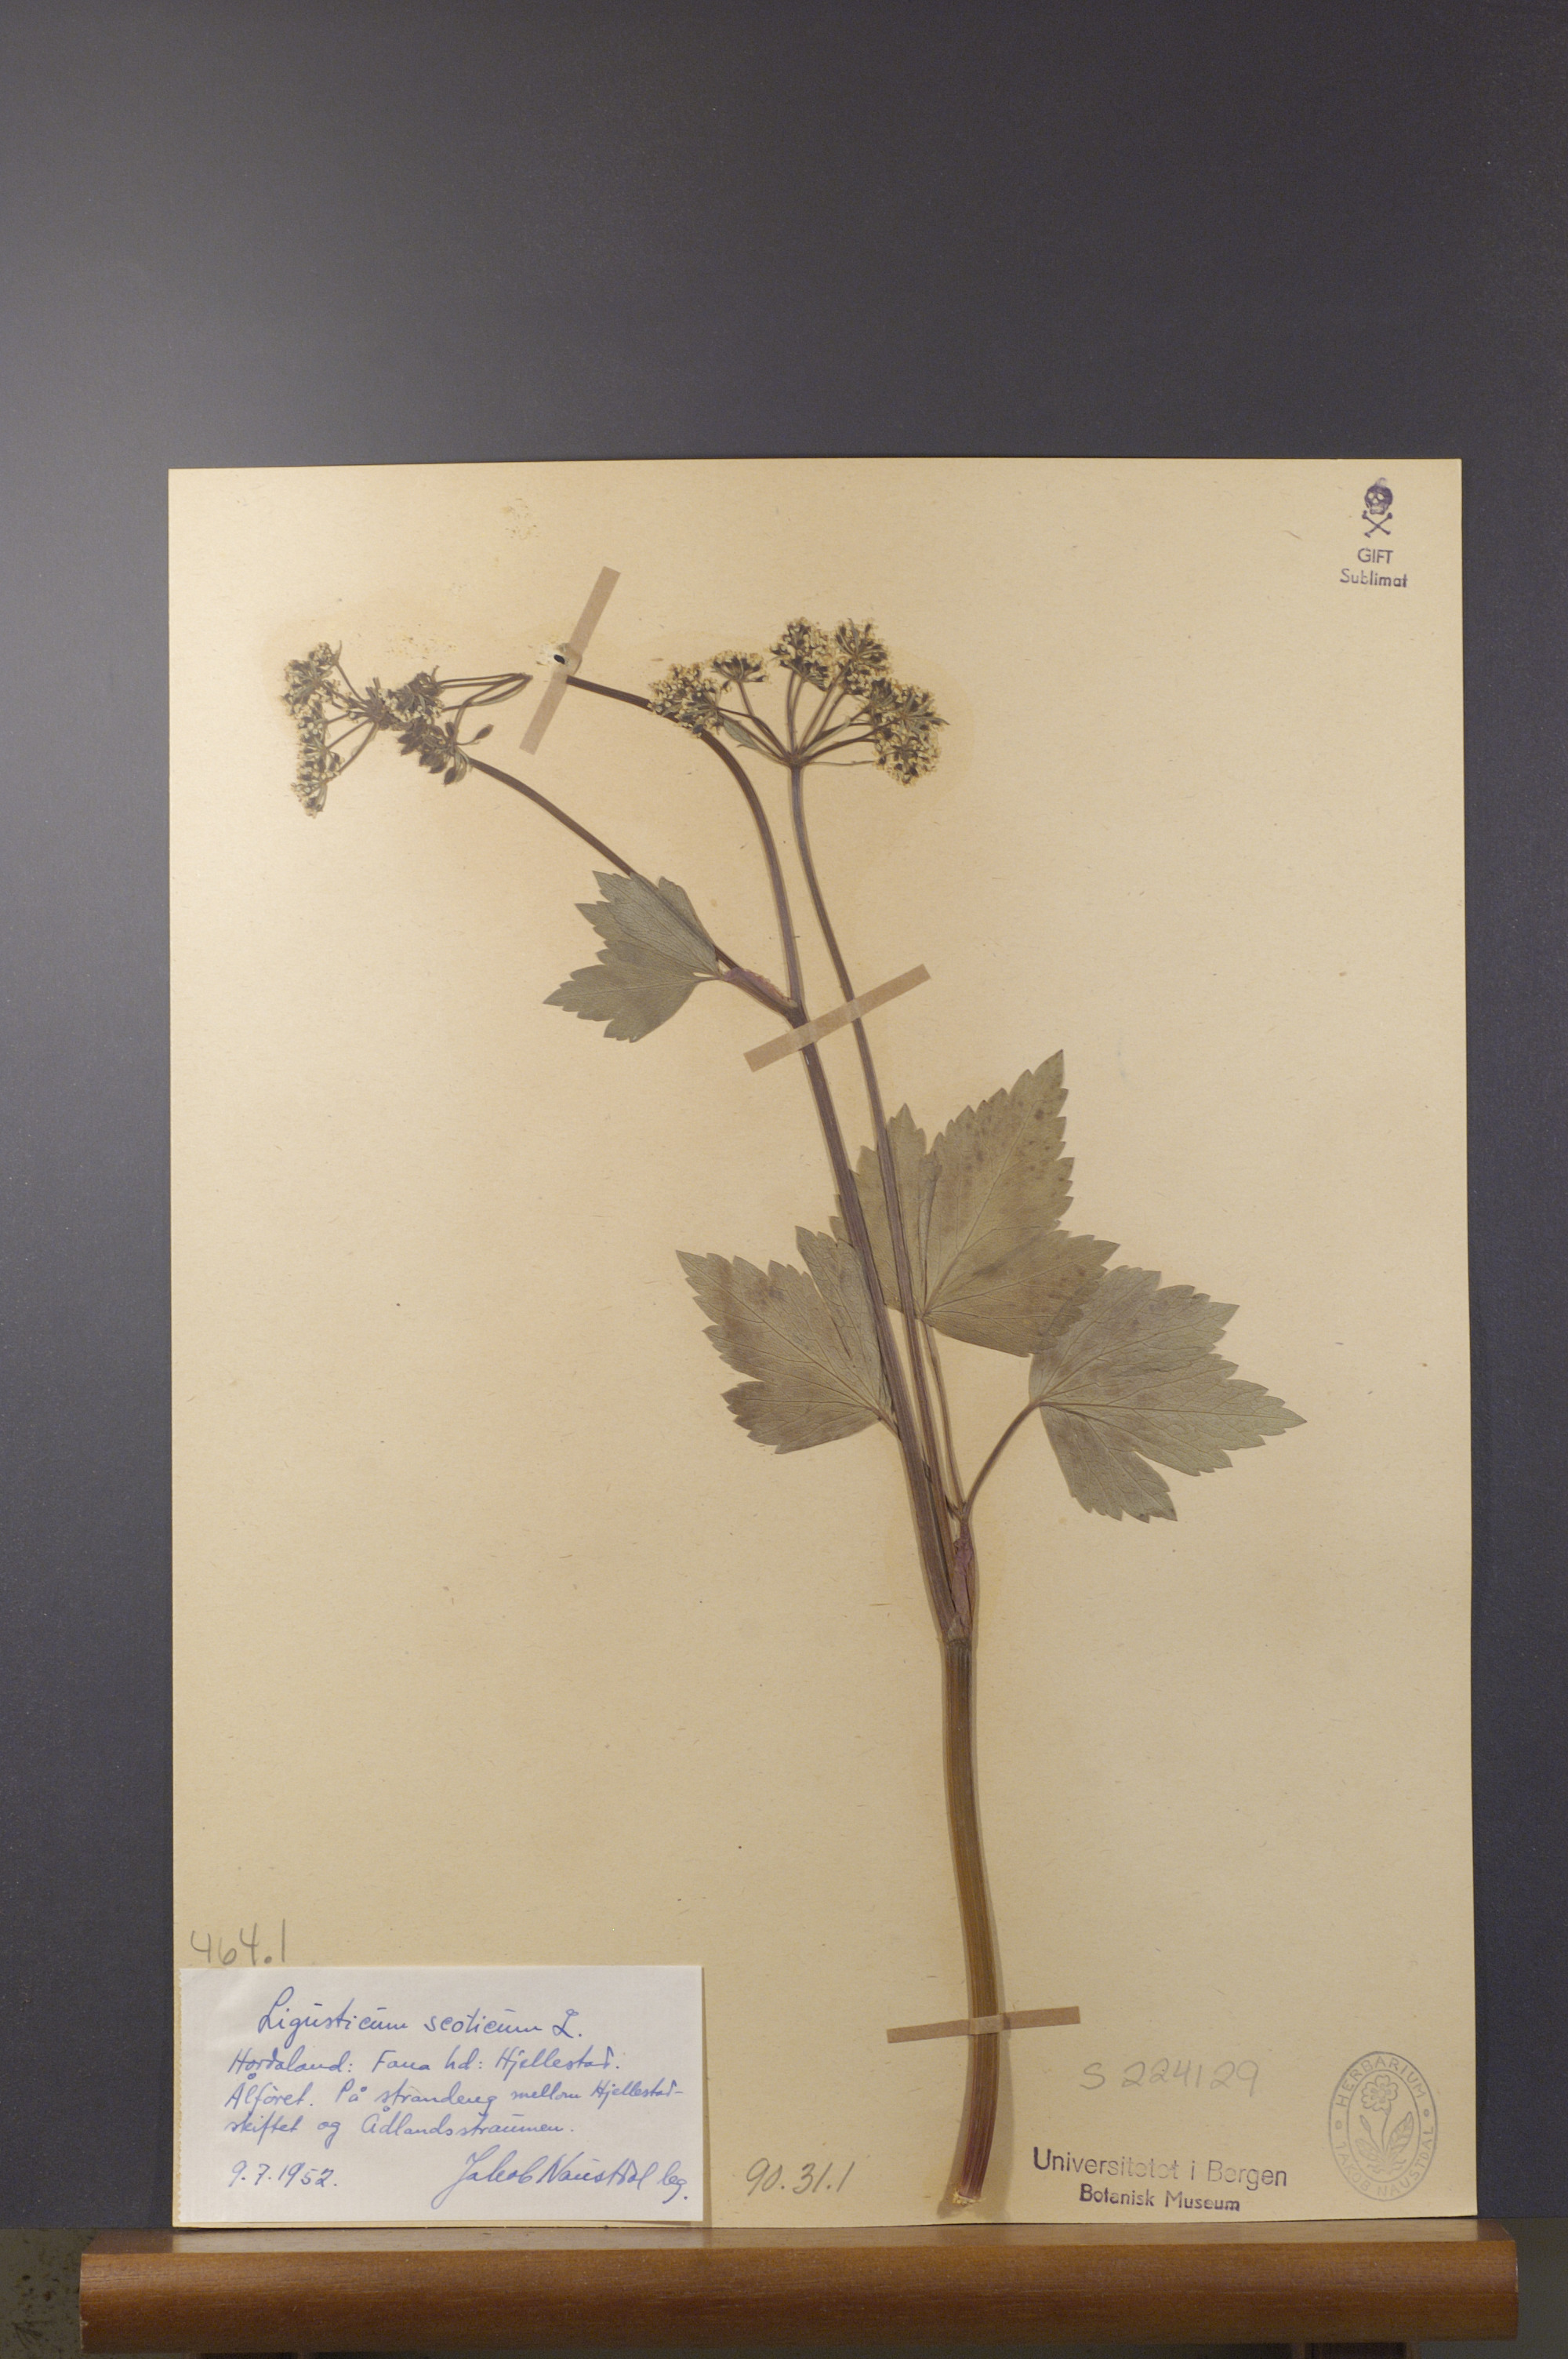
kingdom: Plantae
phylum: Tracheophyta
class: Magnoliopsida
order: Apiales
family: Apiaceae
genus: Ligusticum
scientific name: Ligusticum scothicum
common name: Beach lovage
